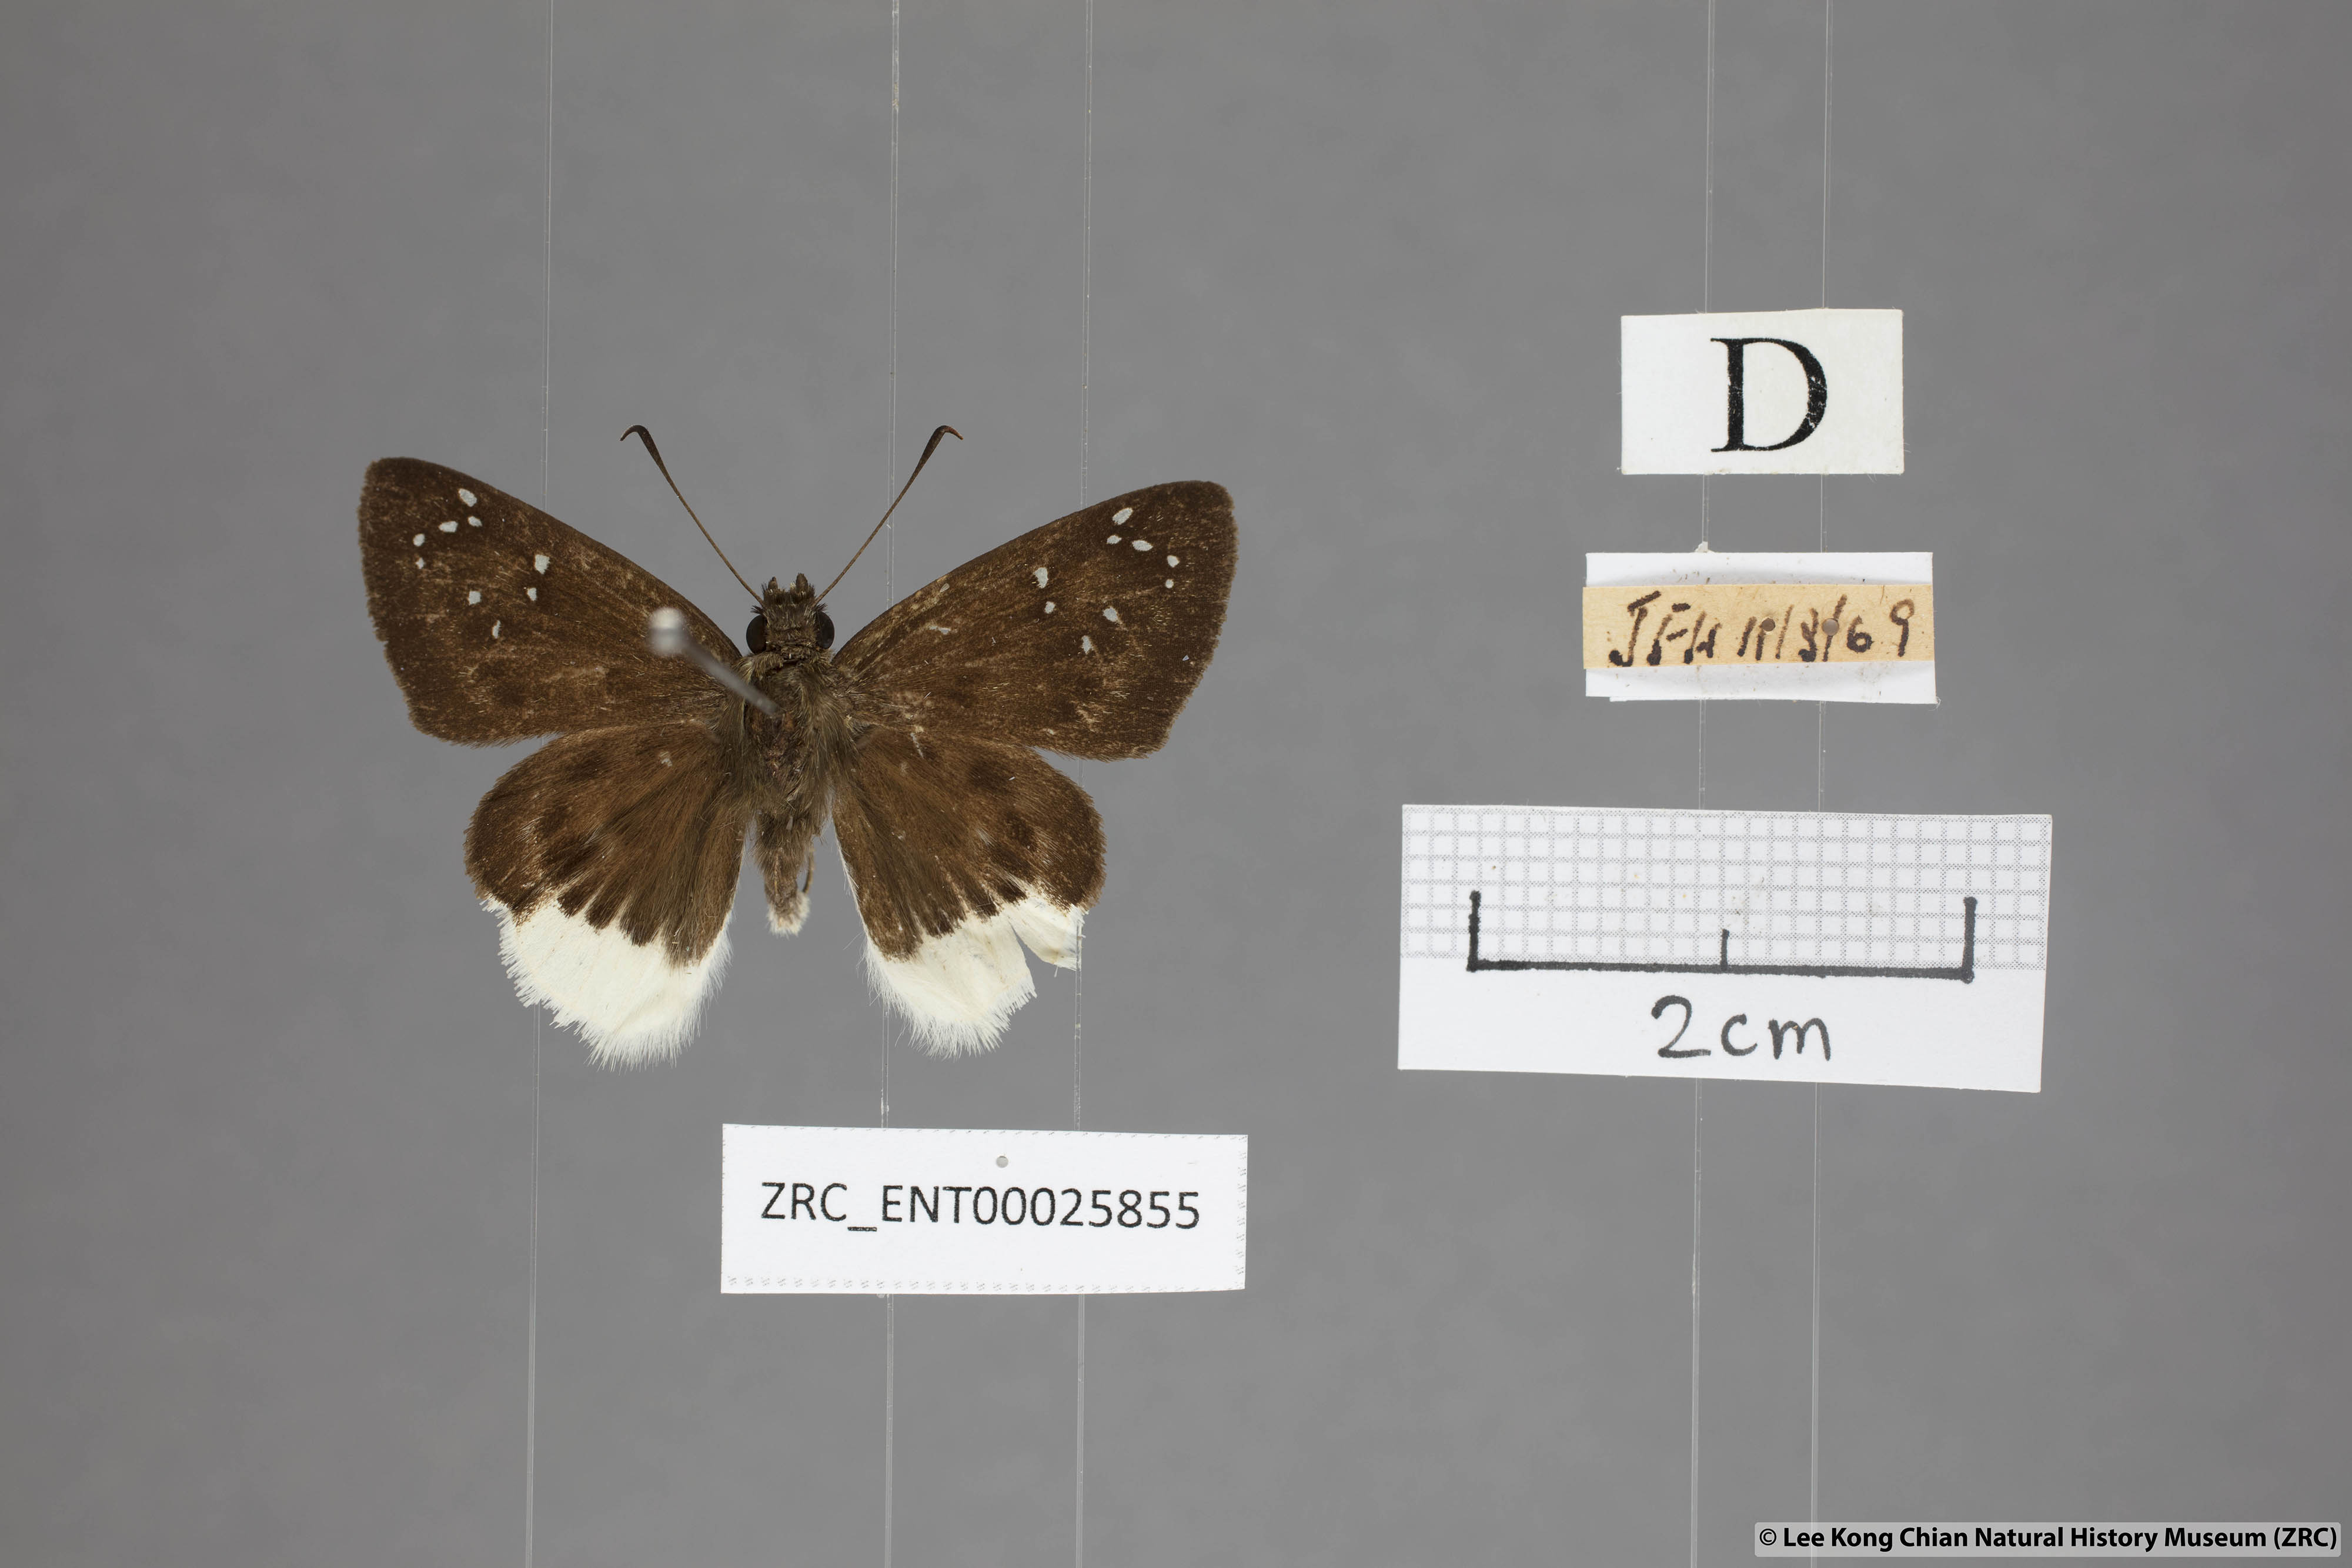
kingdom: Animalia
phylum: Arthropoda
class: Insecta
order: Lepidoptera
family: Hesperiidae
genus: Darpa
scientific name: Darpa pterica
